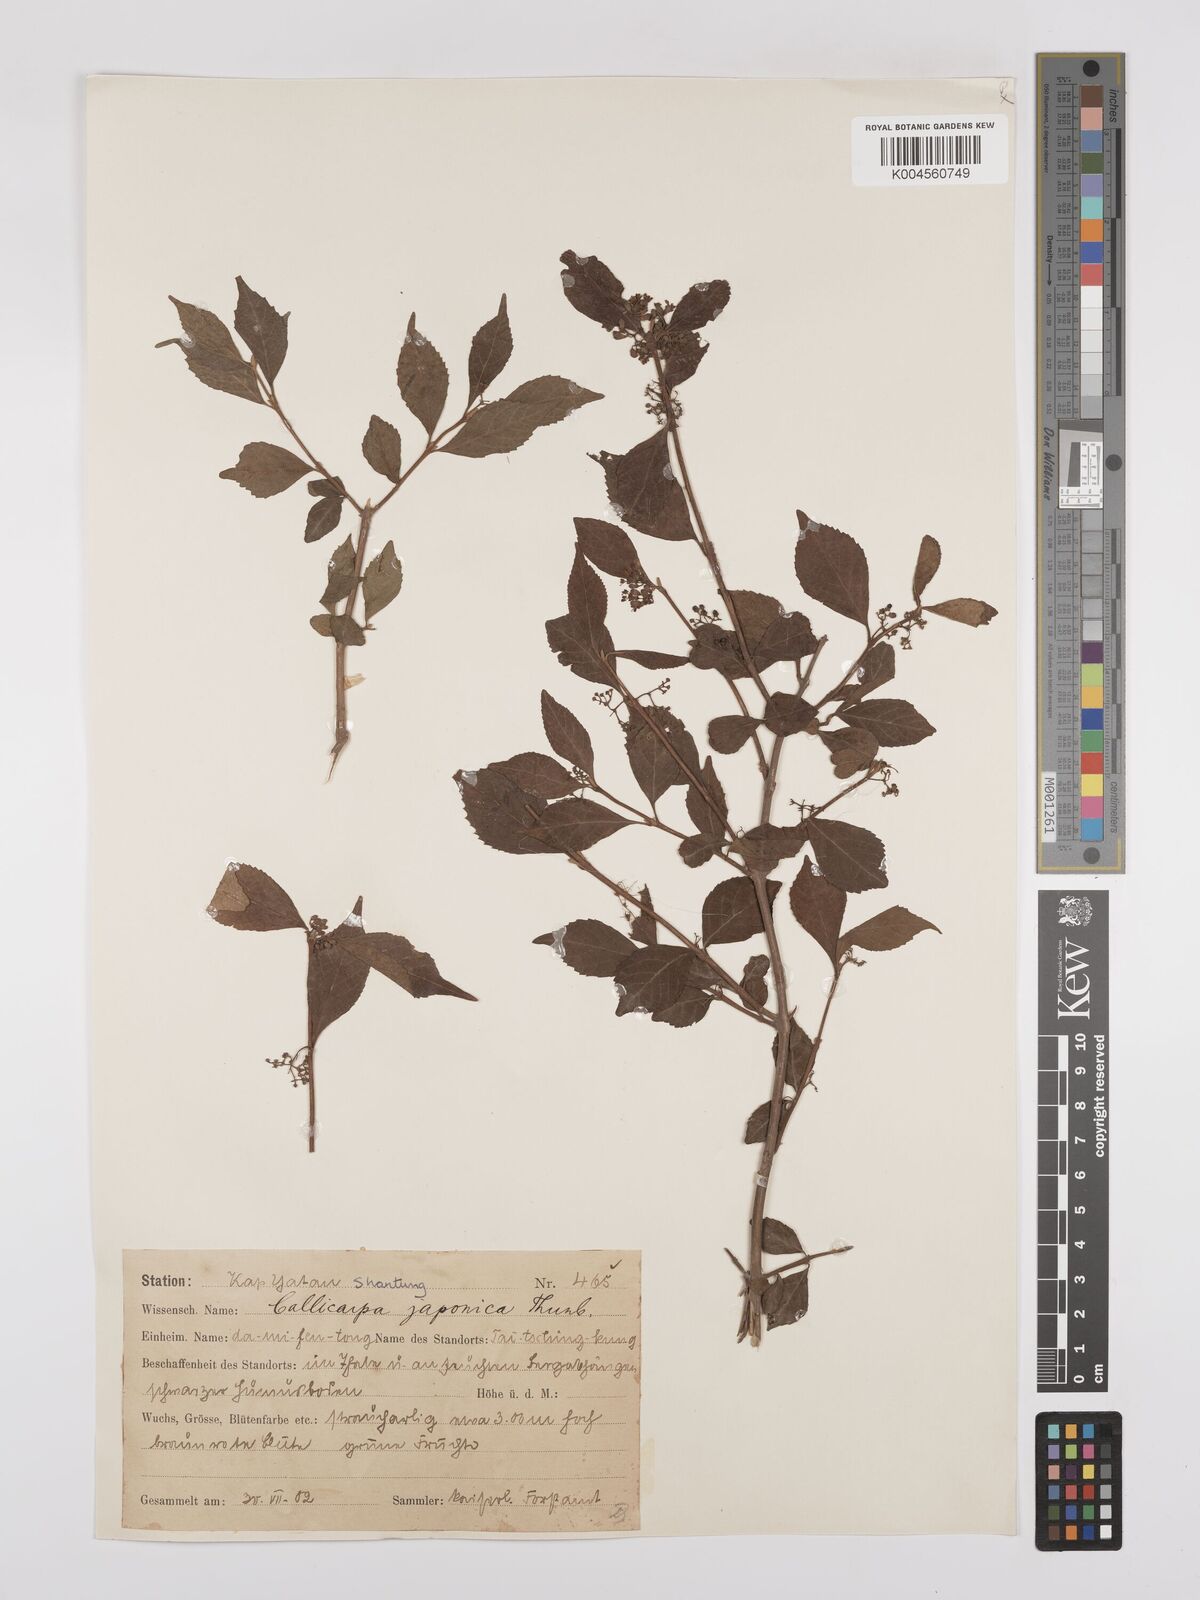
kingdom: Plantae
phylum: Tracheophyta
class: Magnoliopsida
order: Lamiales
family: Lamiaceae
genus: Callicarpa
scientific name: Callicarpa japonica
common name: Japanese beauty-berry
